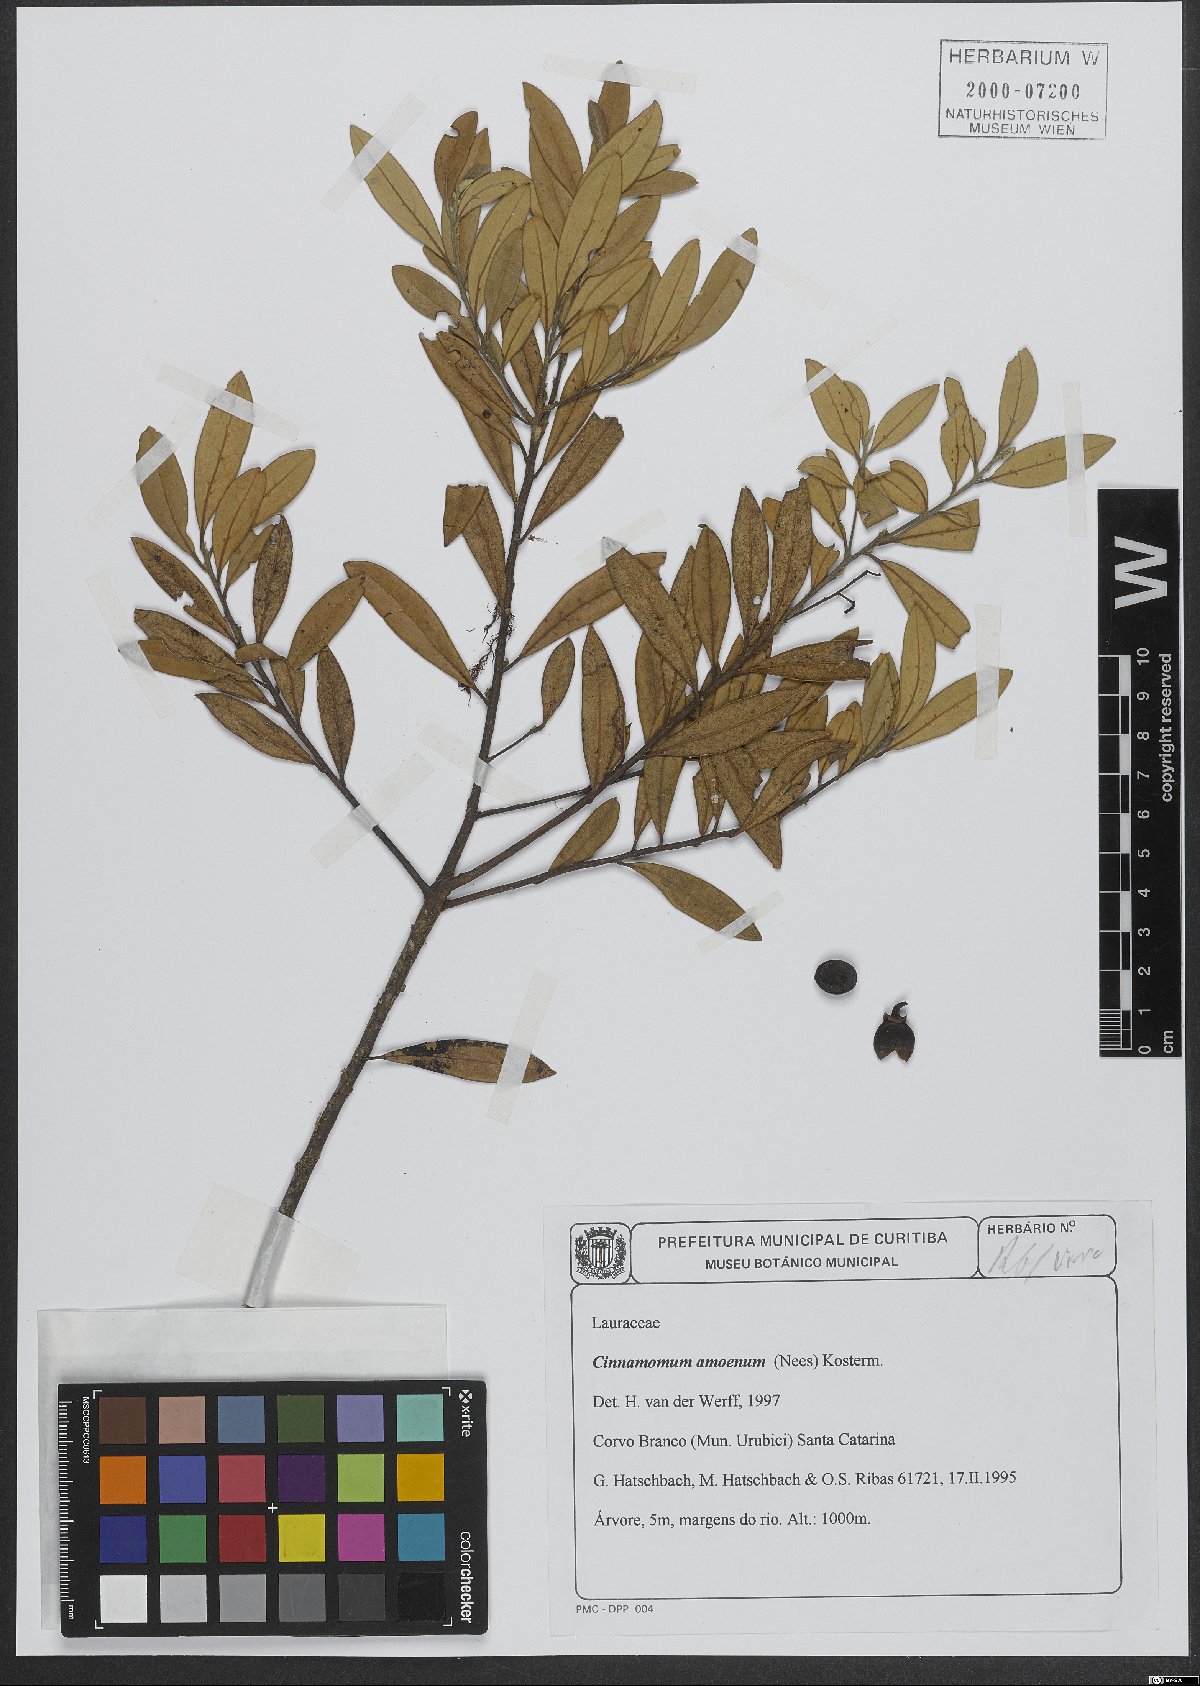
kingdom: Plantae
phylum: Tracheophyta
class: Magnoliopsida
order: Laurales
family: Lauraceae
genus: Aiouea
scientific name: Aiouea amoena
